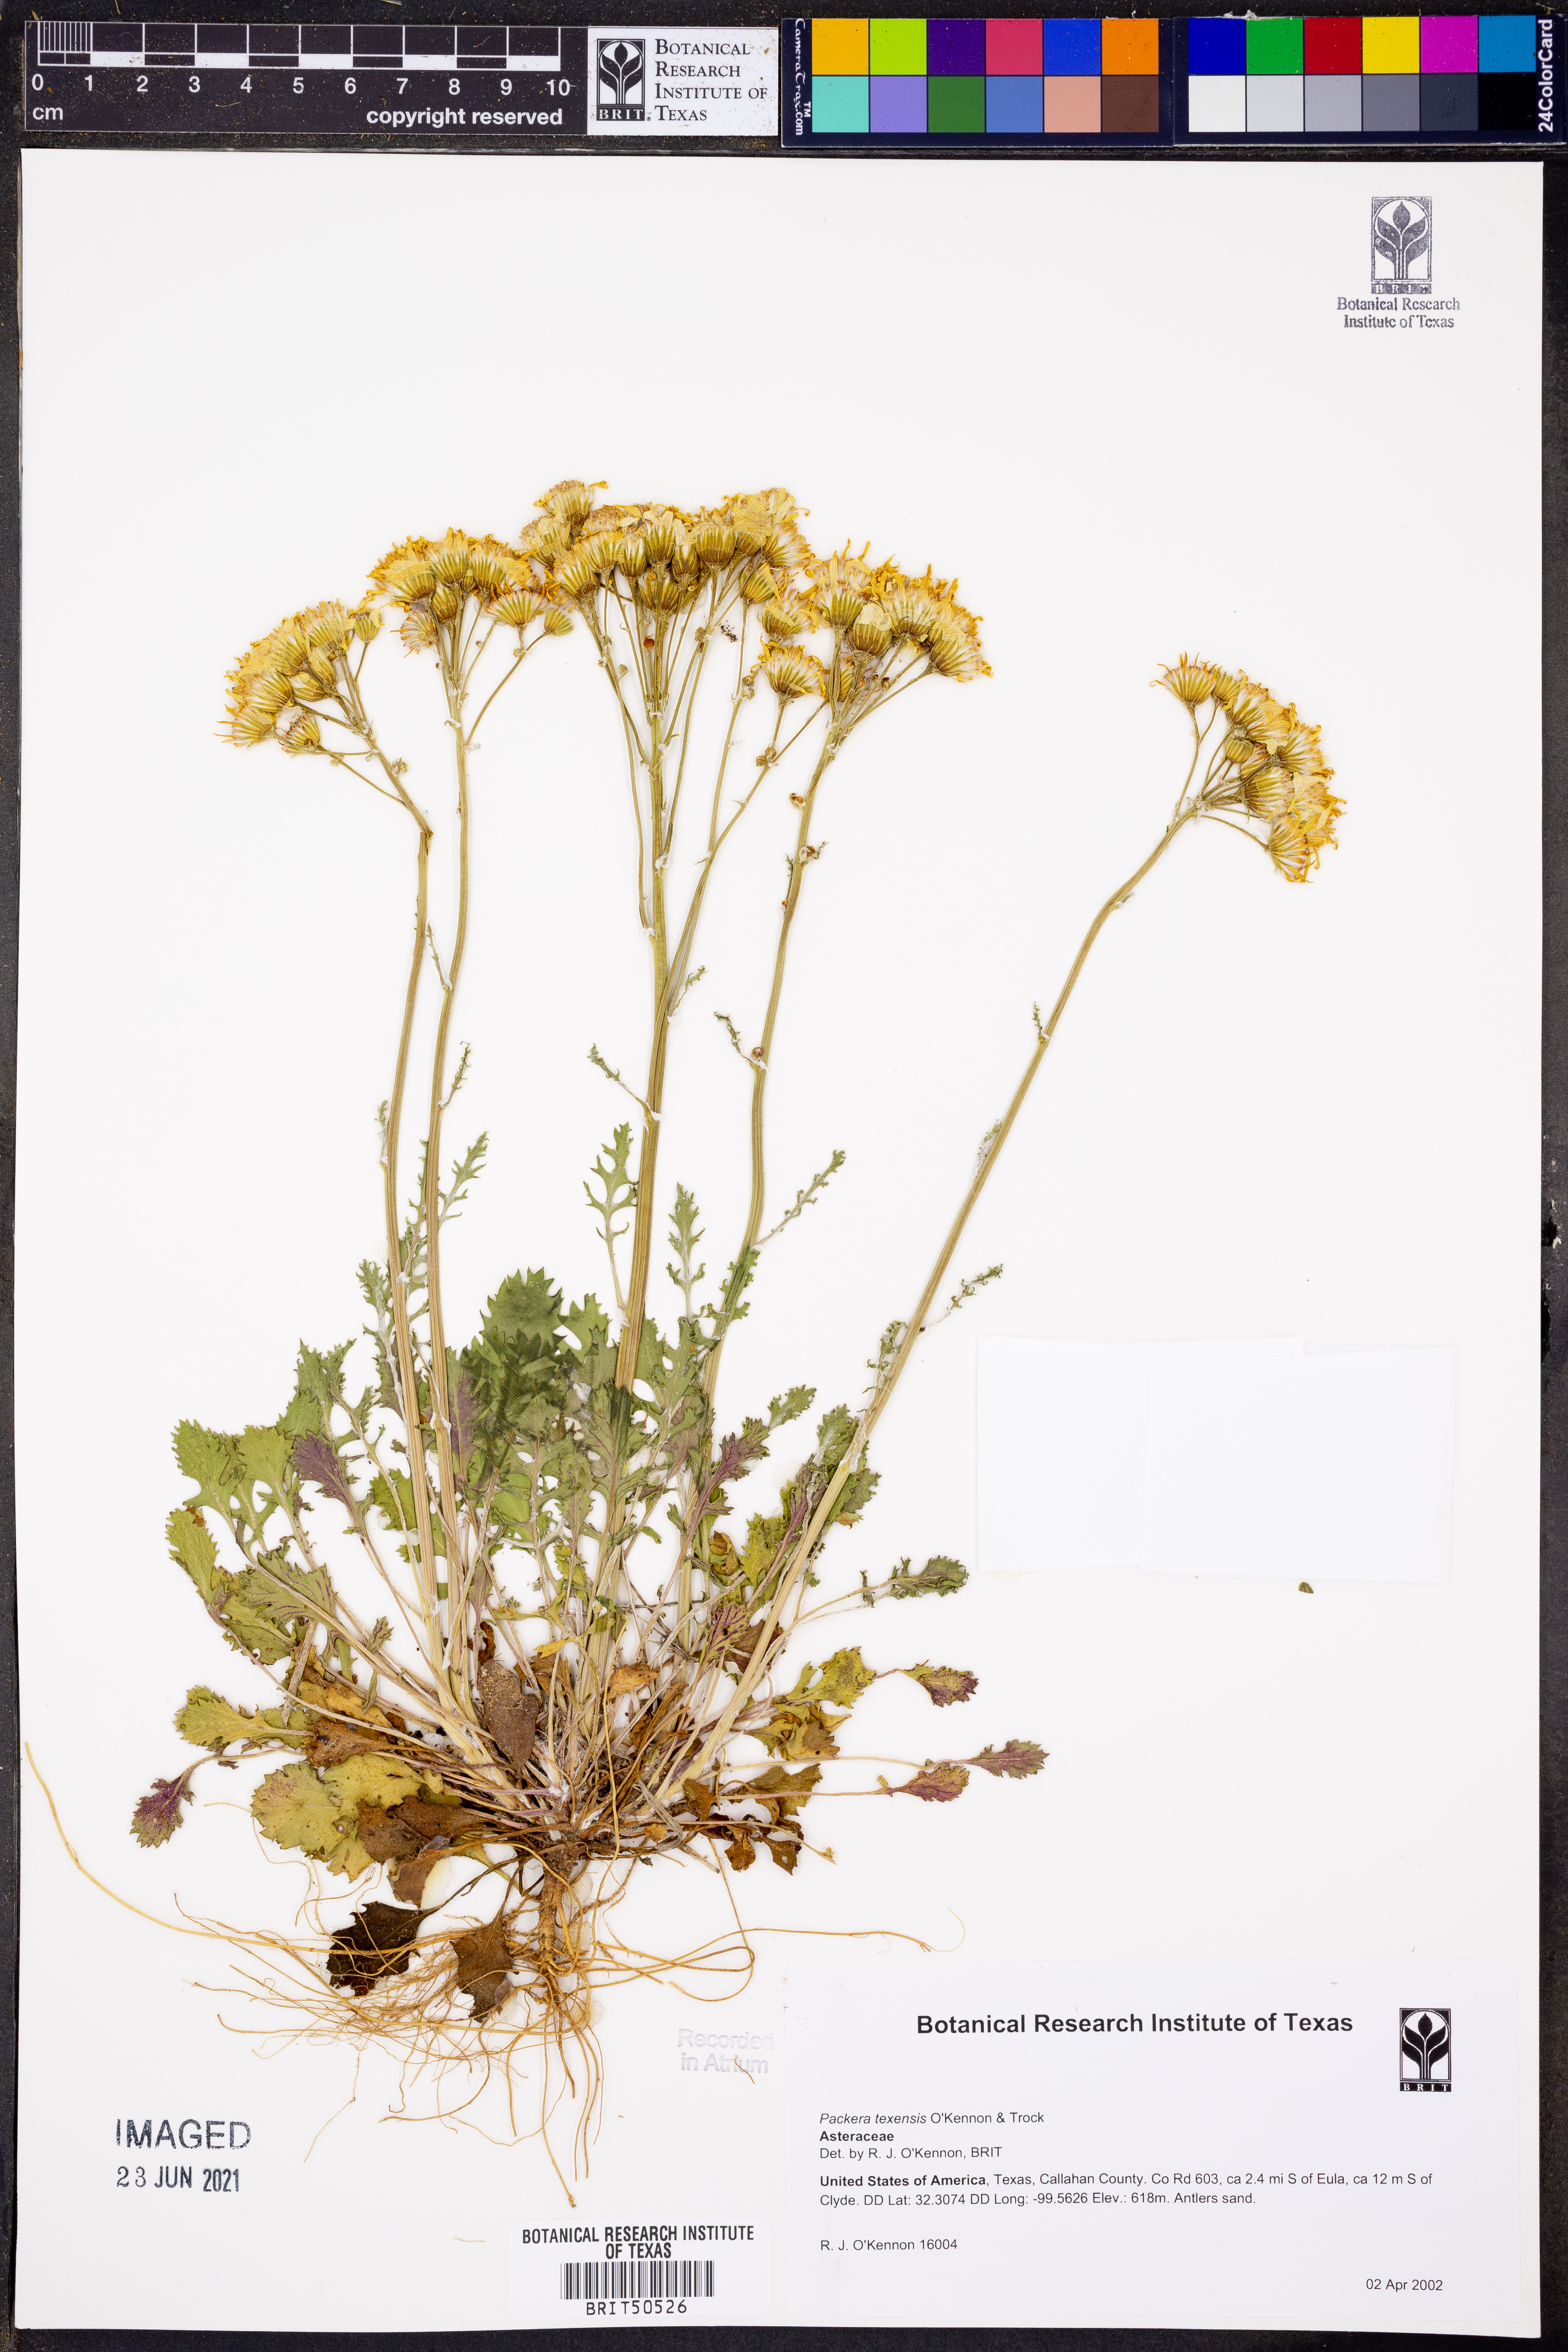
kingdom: Plantae
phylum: Tracheophyta
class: Magnoliopsida
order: Asterales
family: Asteraceae
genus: Packera
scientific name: Packera texensis
